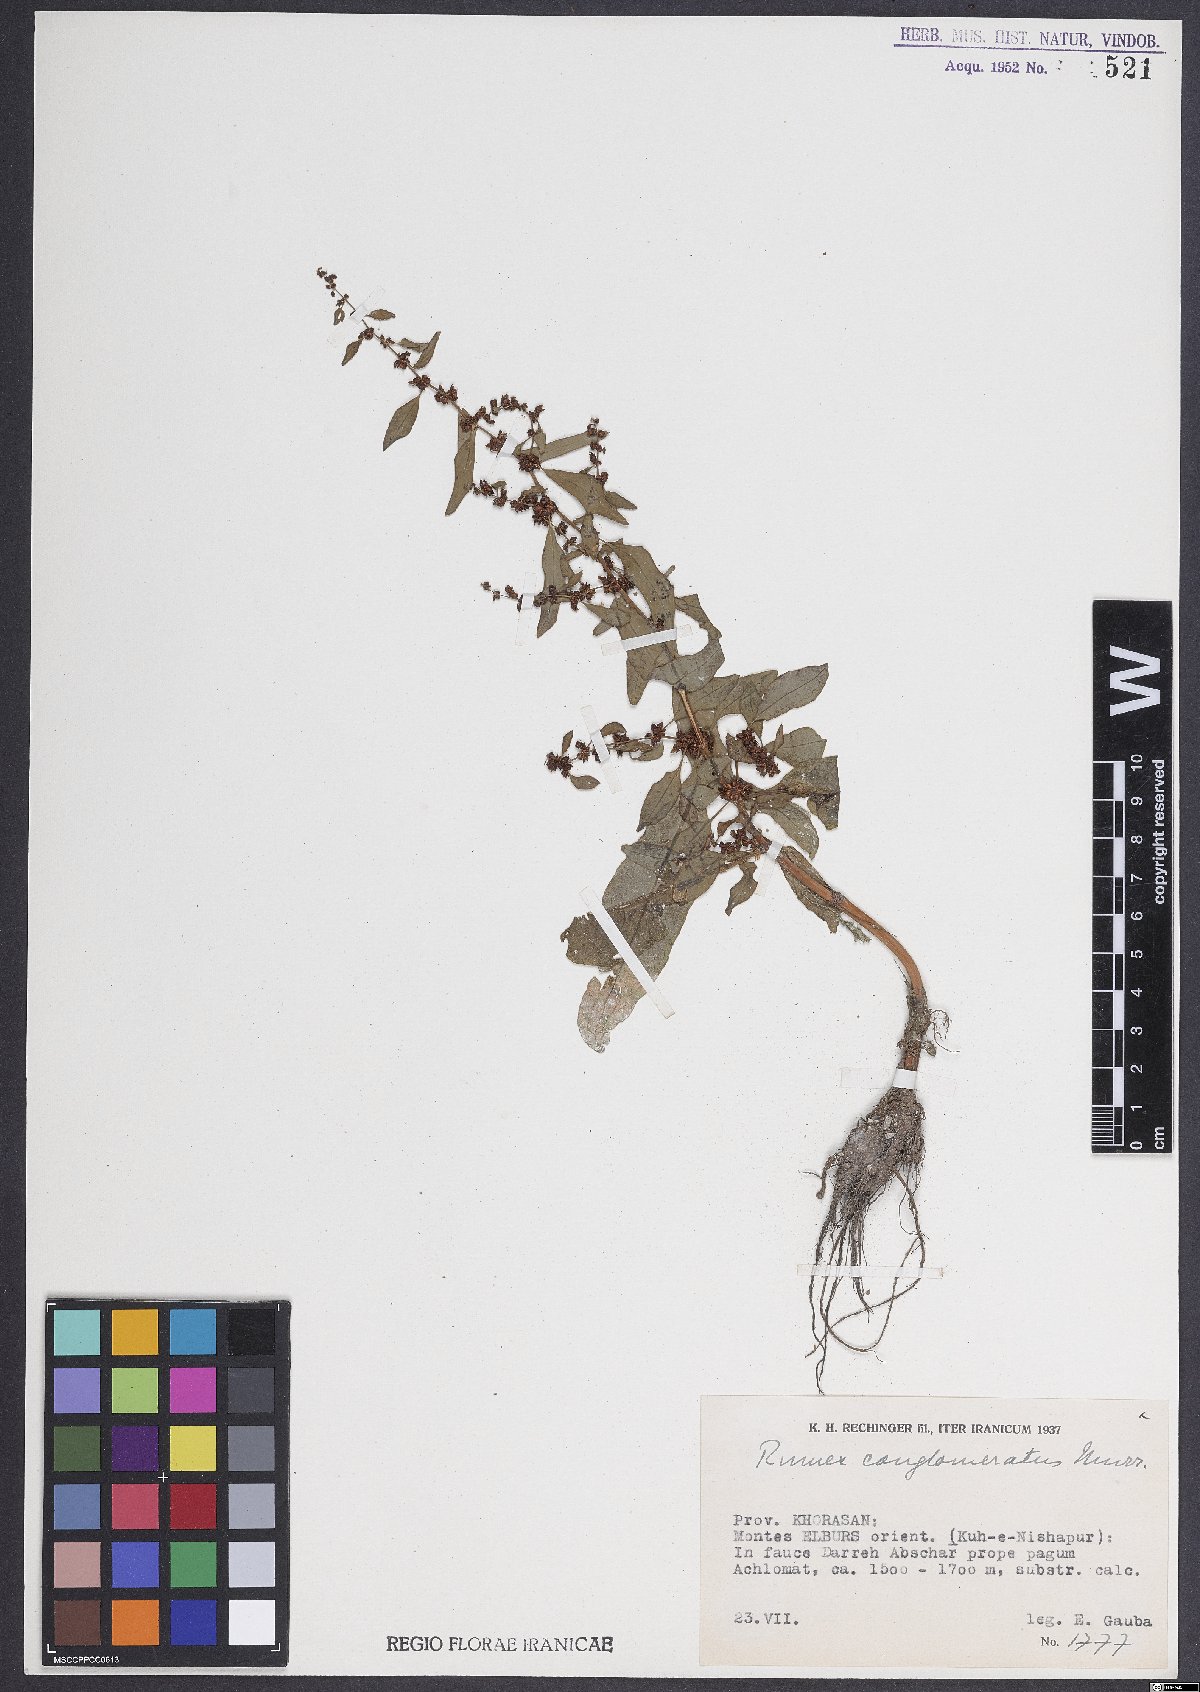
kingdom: Plantae
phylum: Tracheophyta
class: Magnoliopsida
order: Caryophyllales
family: Polygonaceae
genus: Rumex
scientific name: Rumex conglomeratus
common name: Clustered dock
